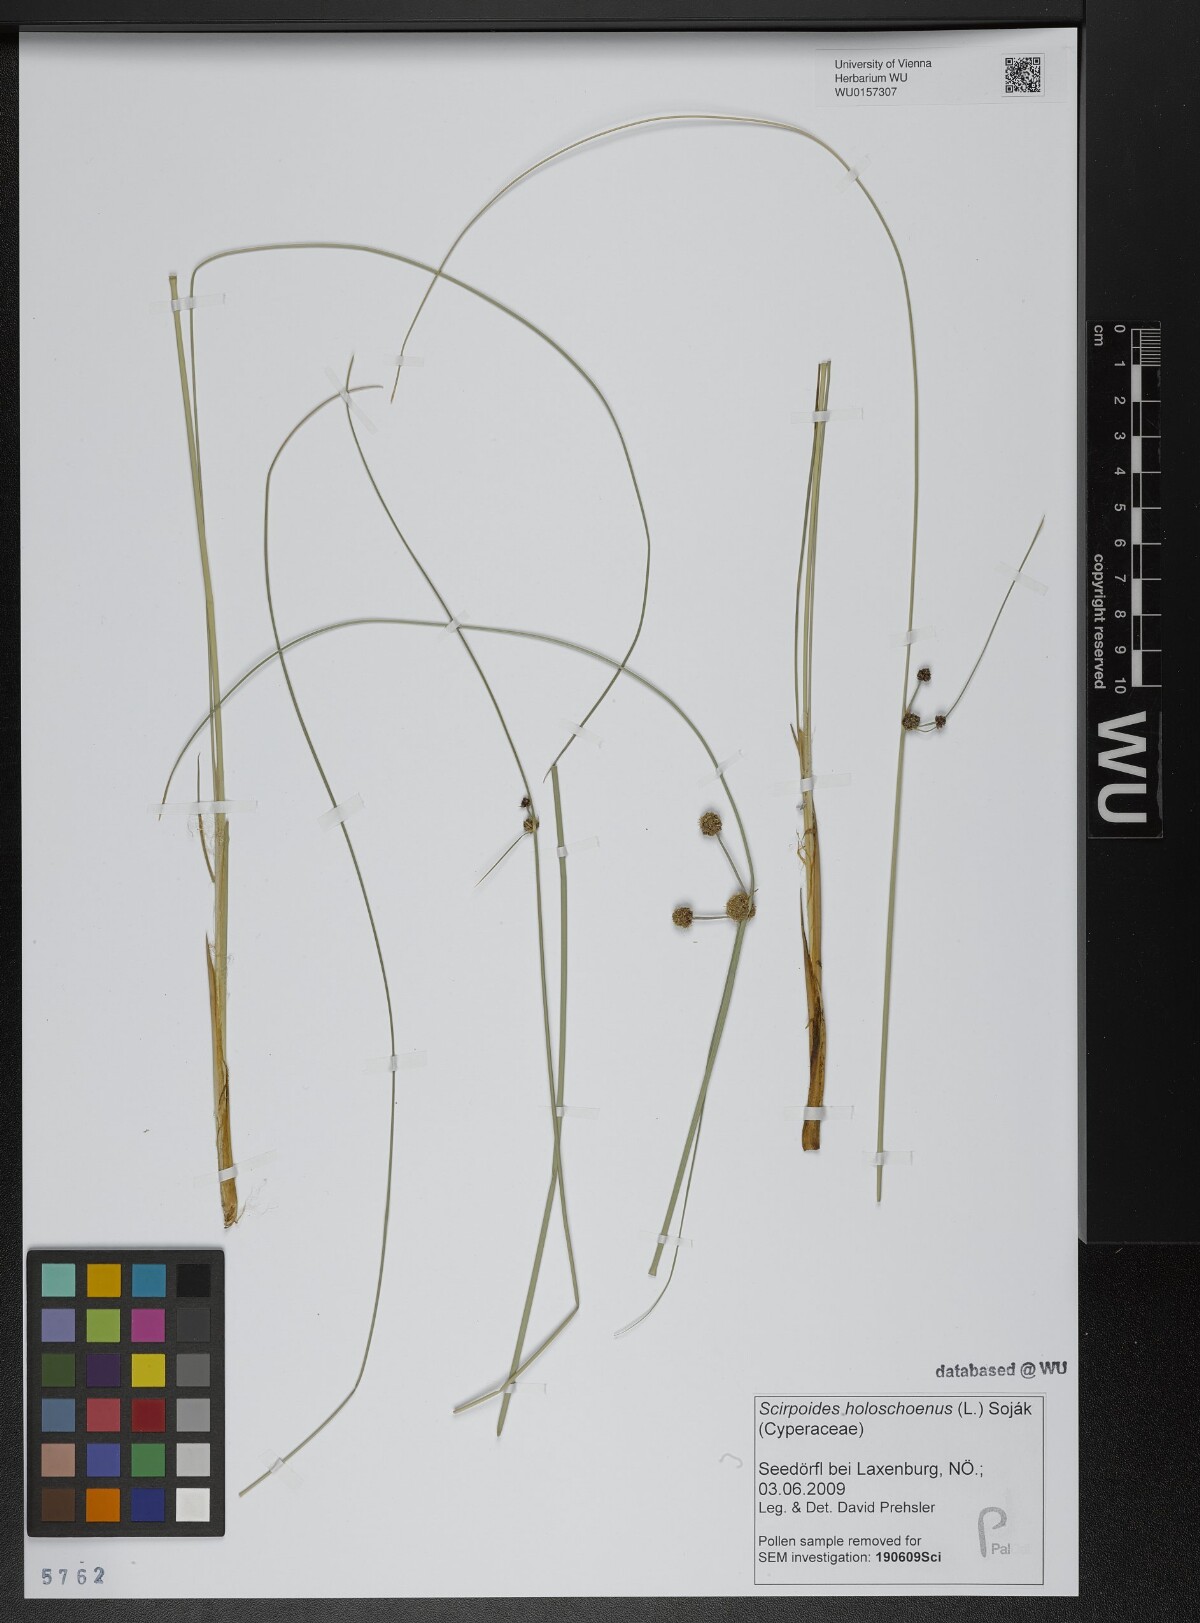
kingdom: Plantae
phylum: Tracheophyta
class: Liliopsida
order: Poales
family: Cyperaceae
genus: Scirpoides
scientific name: Scirpoides holoschoenus
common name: Round-headed club-rush
